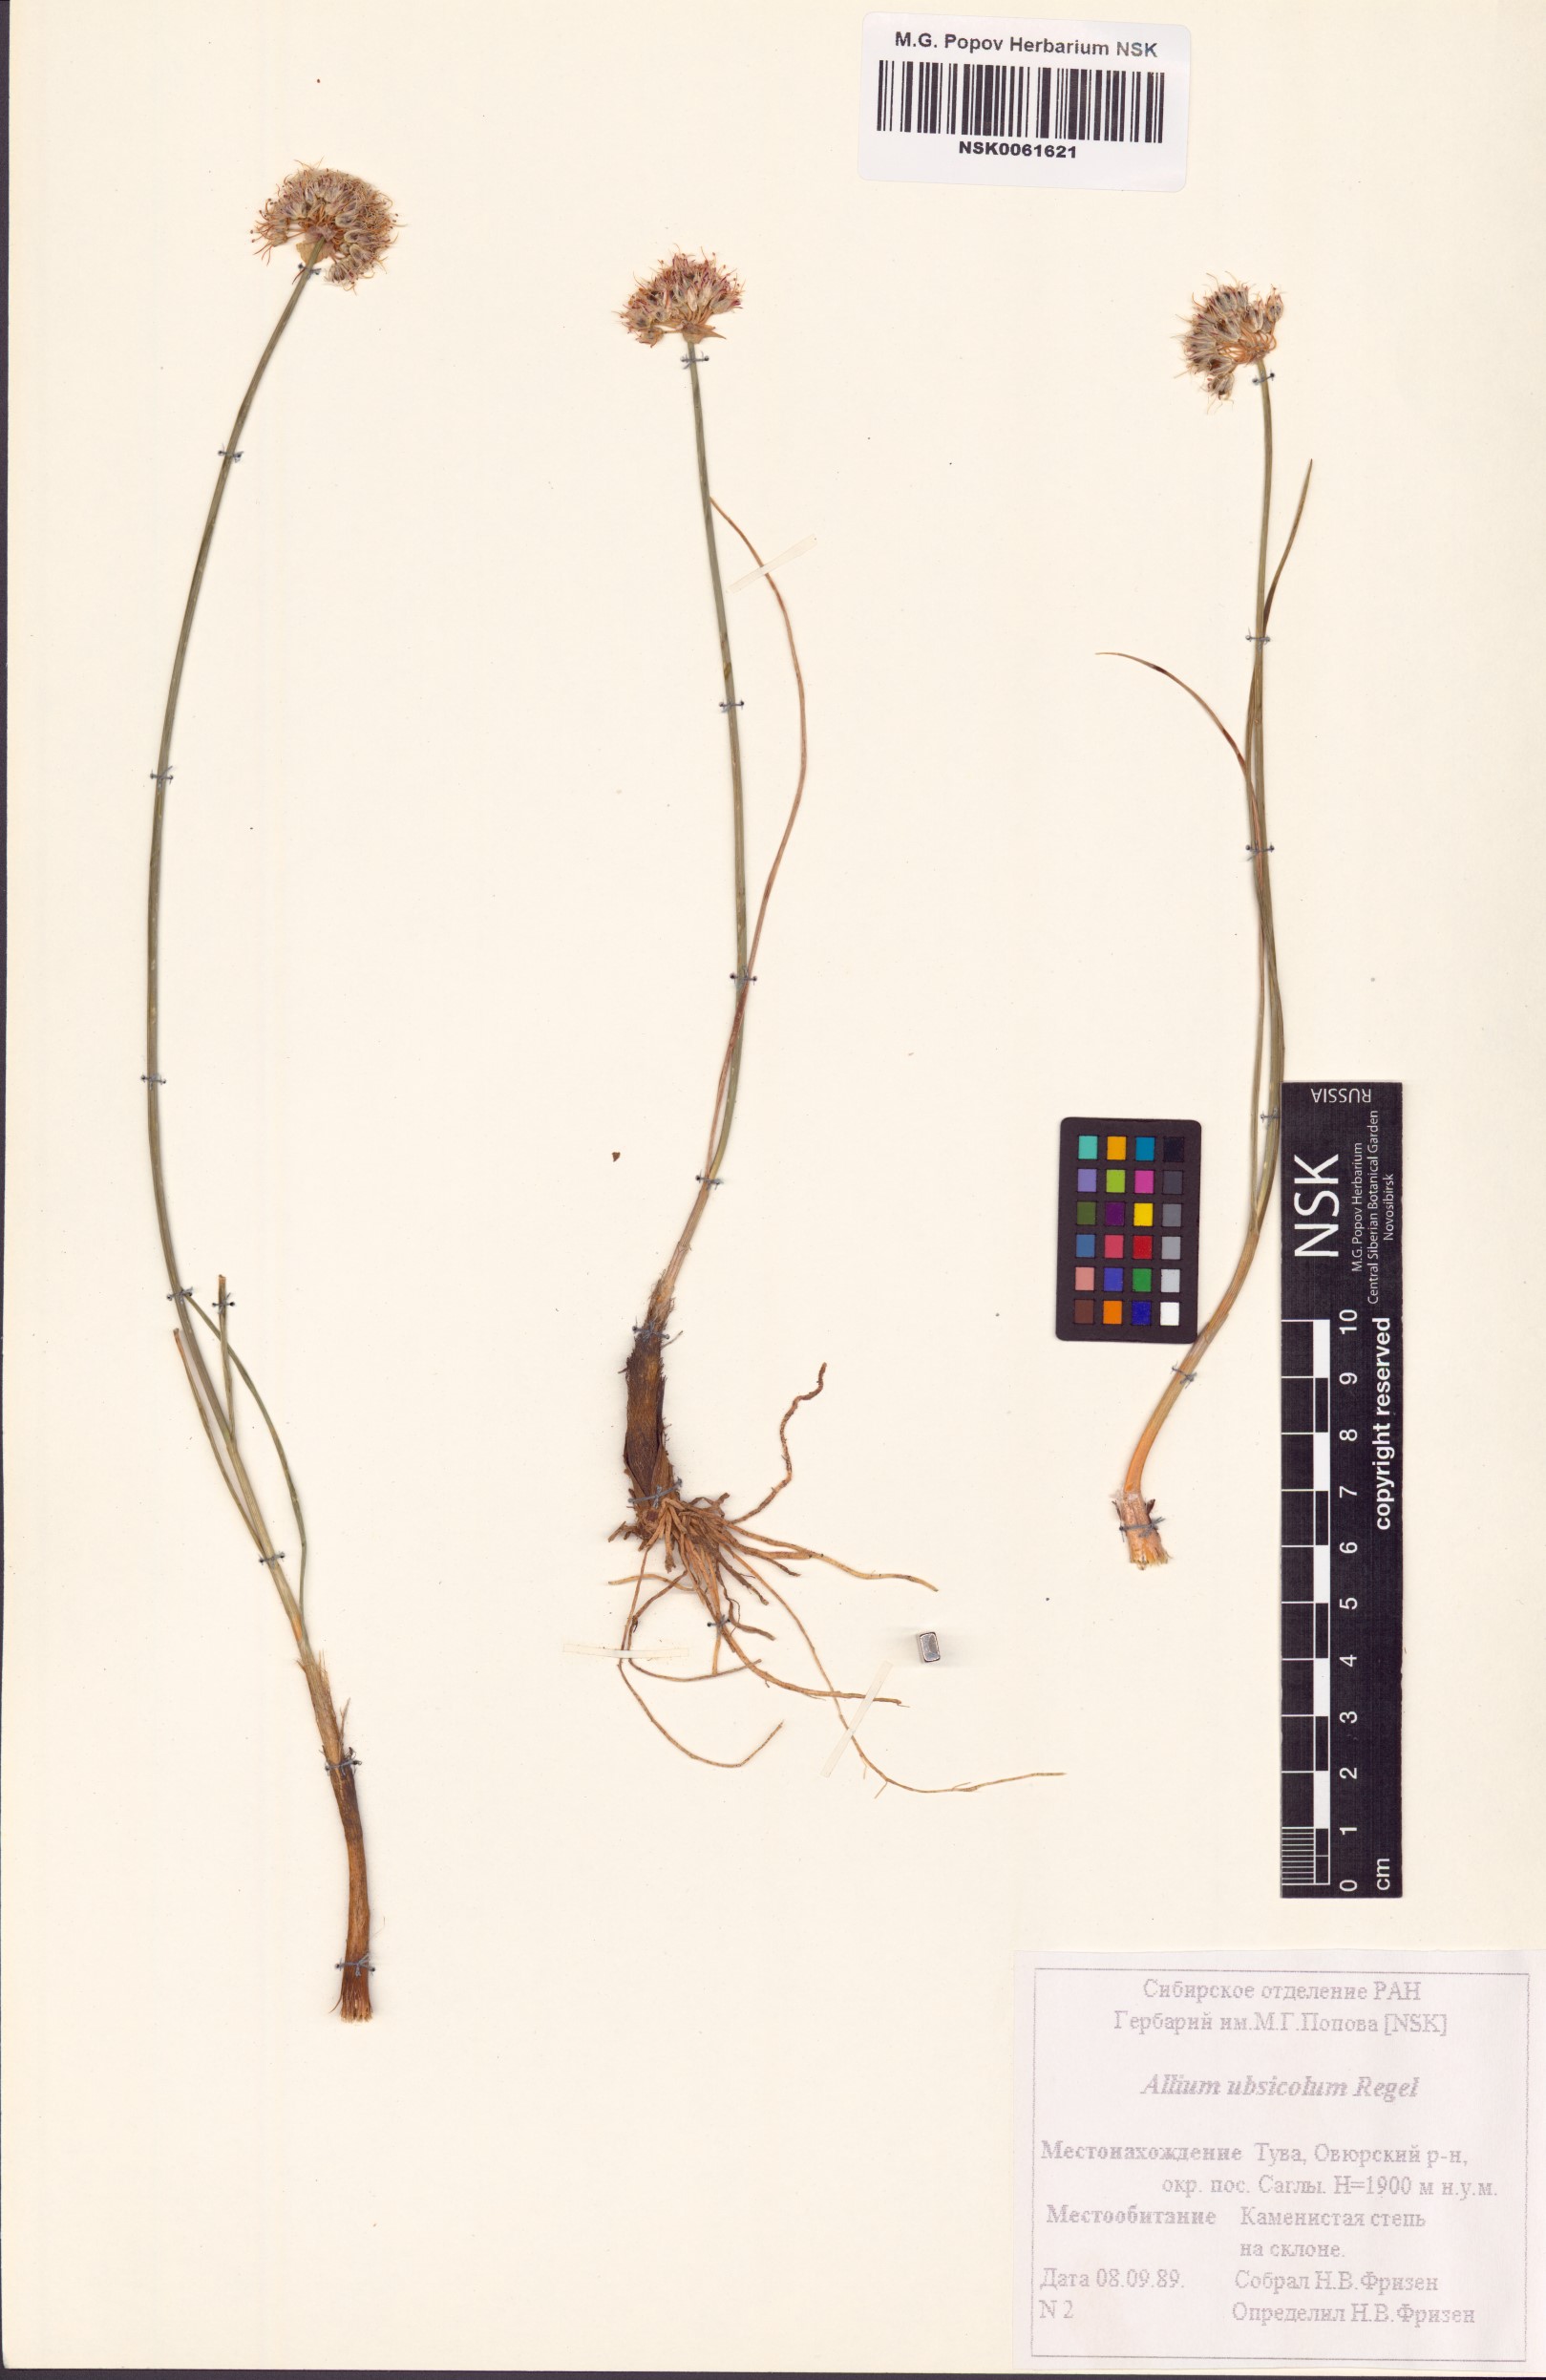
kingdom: Plantae
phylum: Tracheophyta
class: Liliopsida
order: Asparagales
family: Amaryllidaceae
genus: Allium
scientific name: Allium ubsicola
